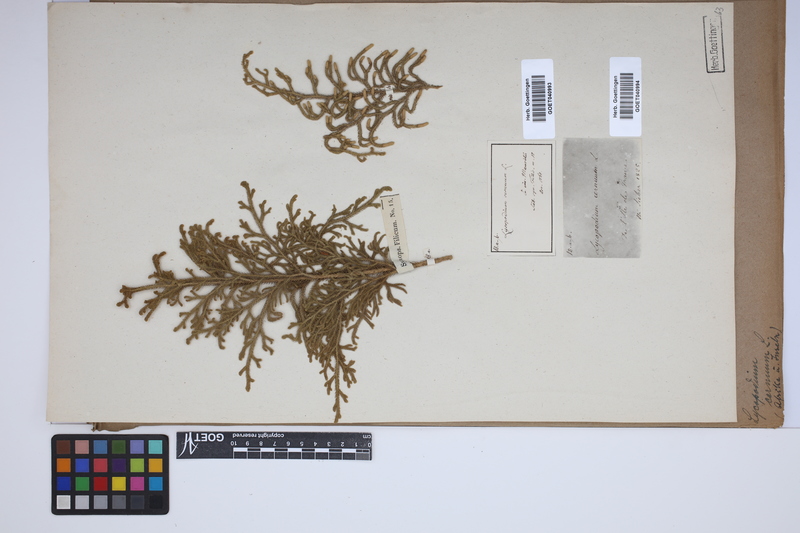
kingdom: Plantae
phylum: Tracheophyta
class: Lycopodiopsida
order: Lycopodiales
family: Lycopodiaceae
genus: Palhinhaea
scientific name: Palhinhaea cernua
